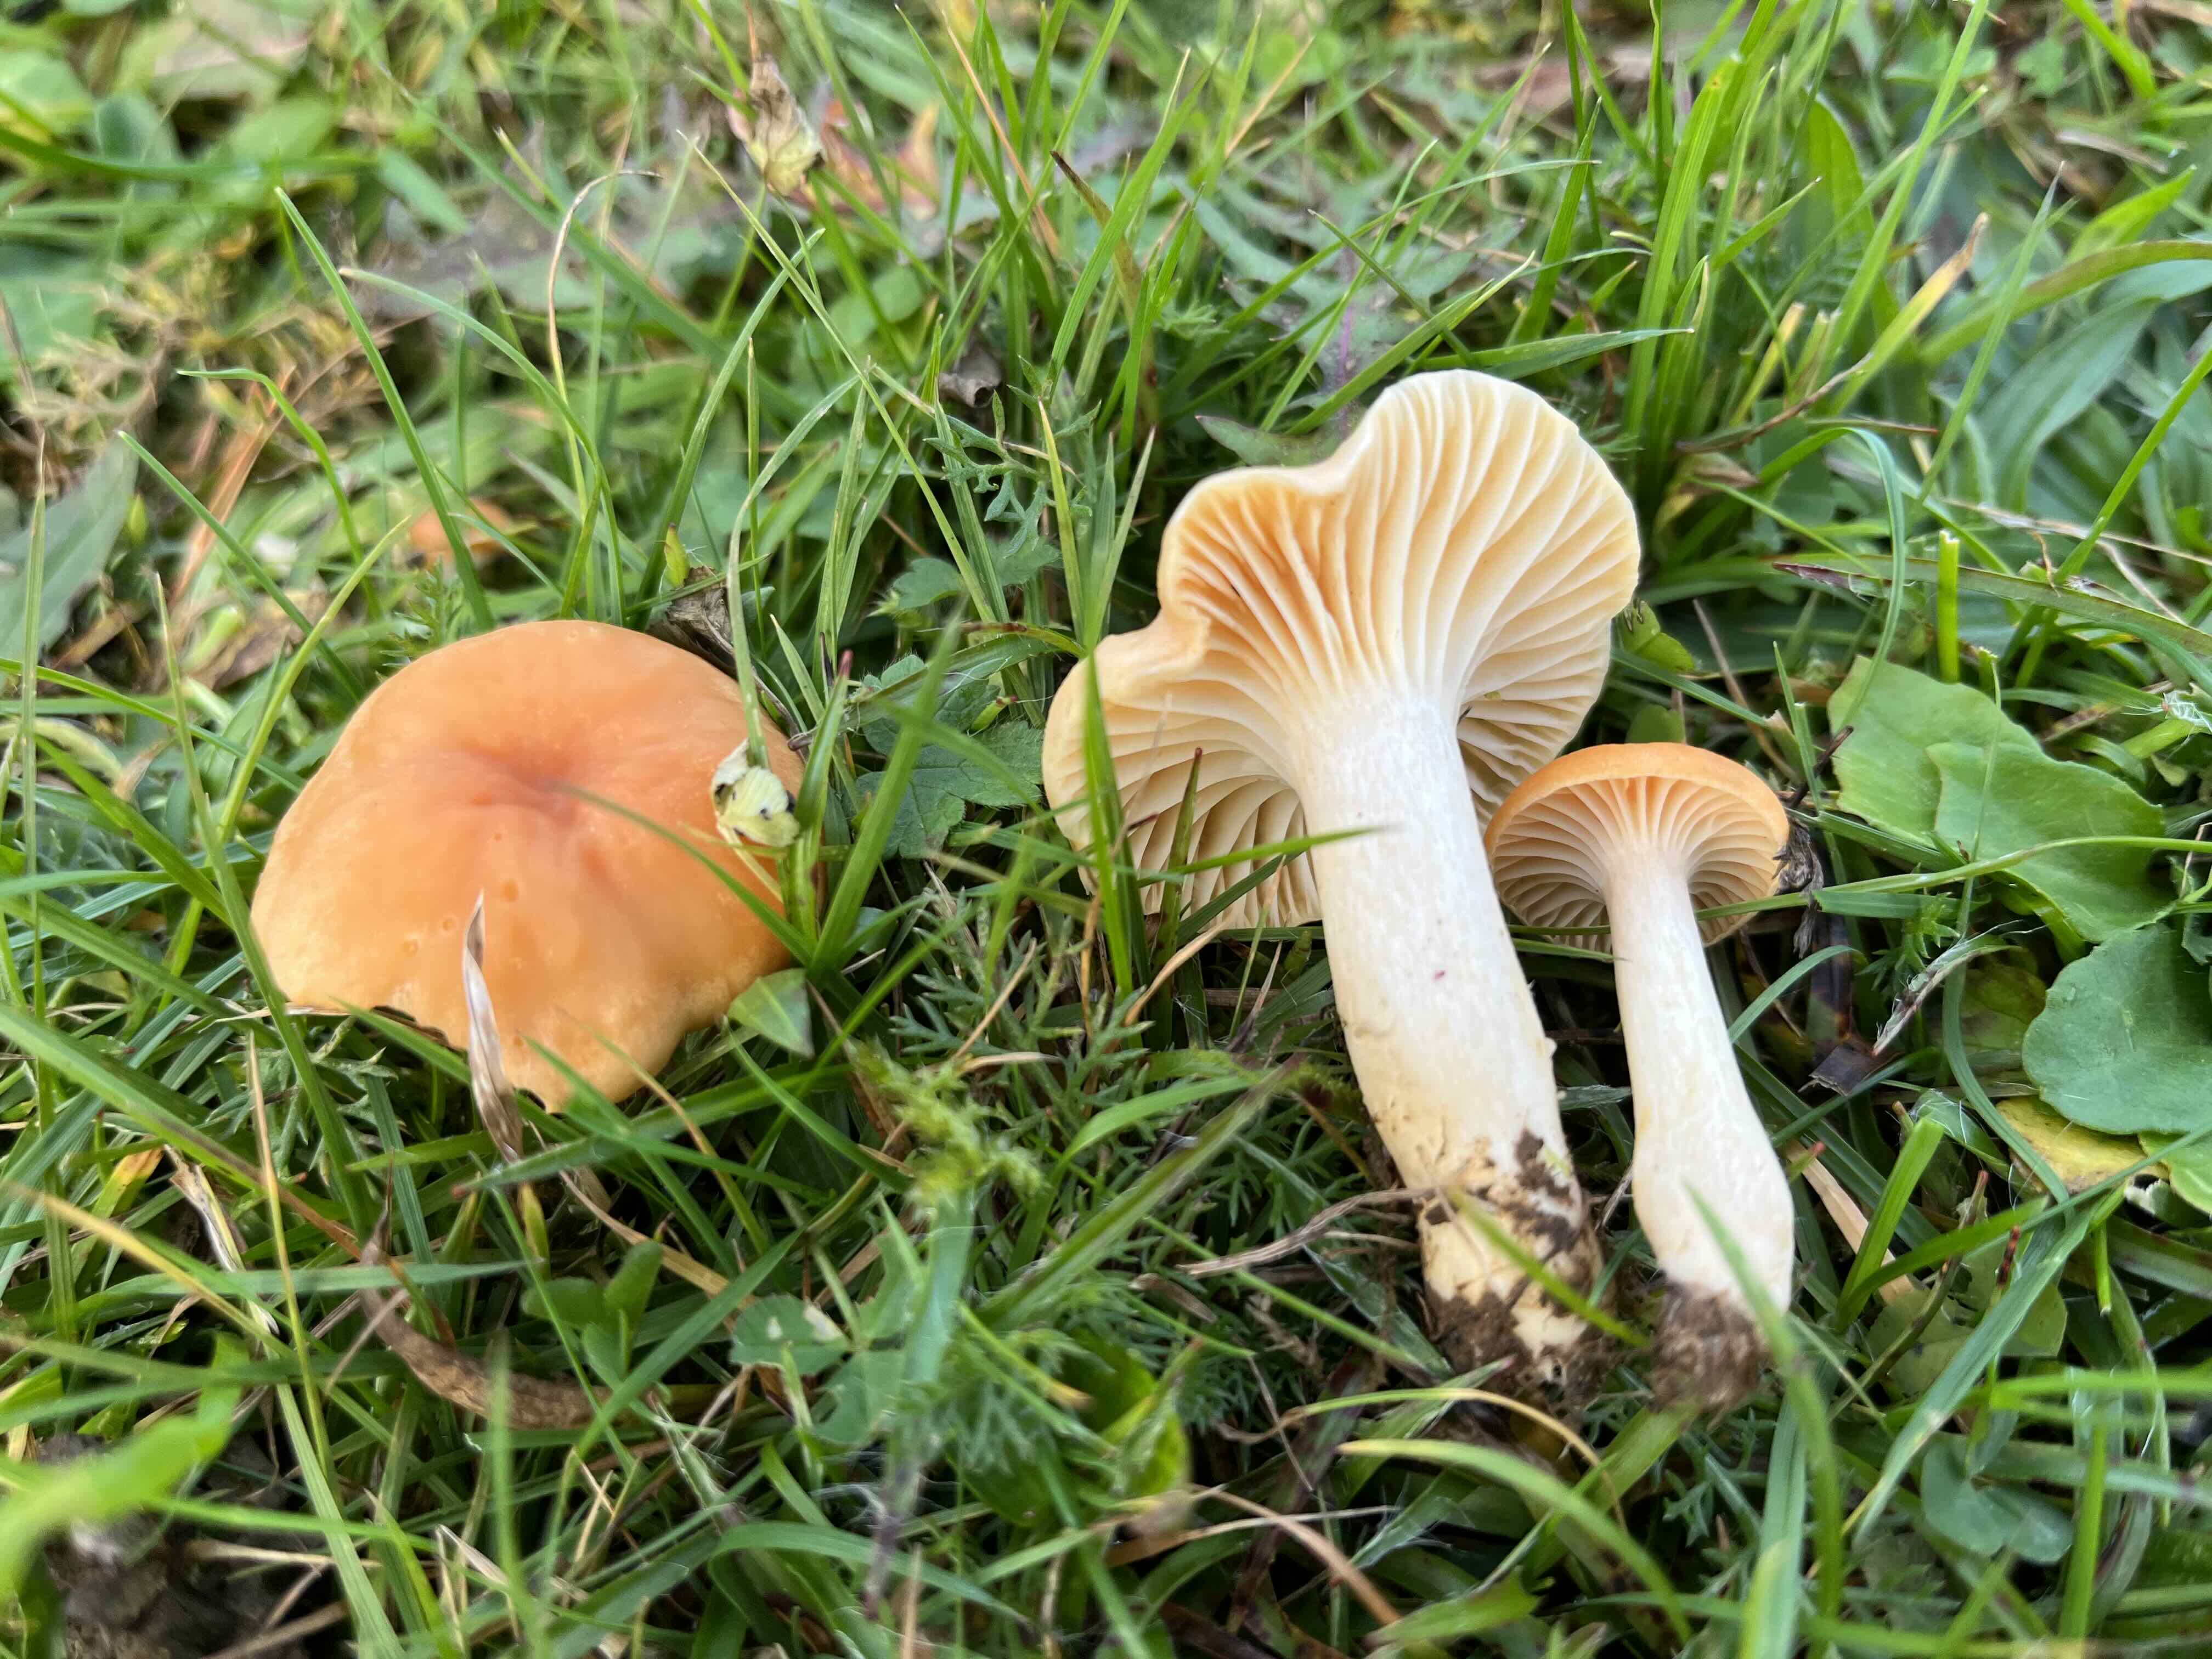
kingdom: Fungi
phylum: Basidiomycota
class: Agaricomycetes
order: Agaricales
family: Hygrophoraceae
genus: Cuphophyllus
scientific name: Cuphophyllus pratensis
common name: eng-vokshat
